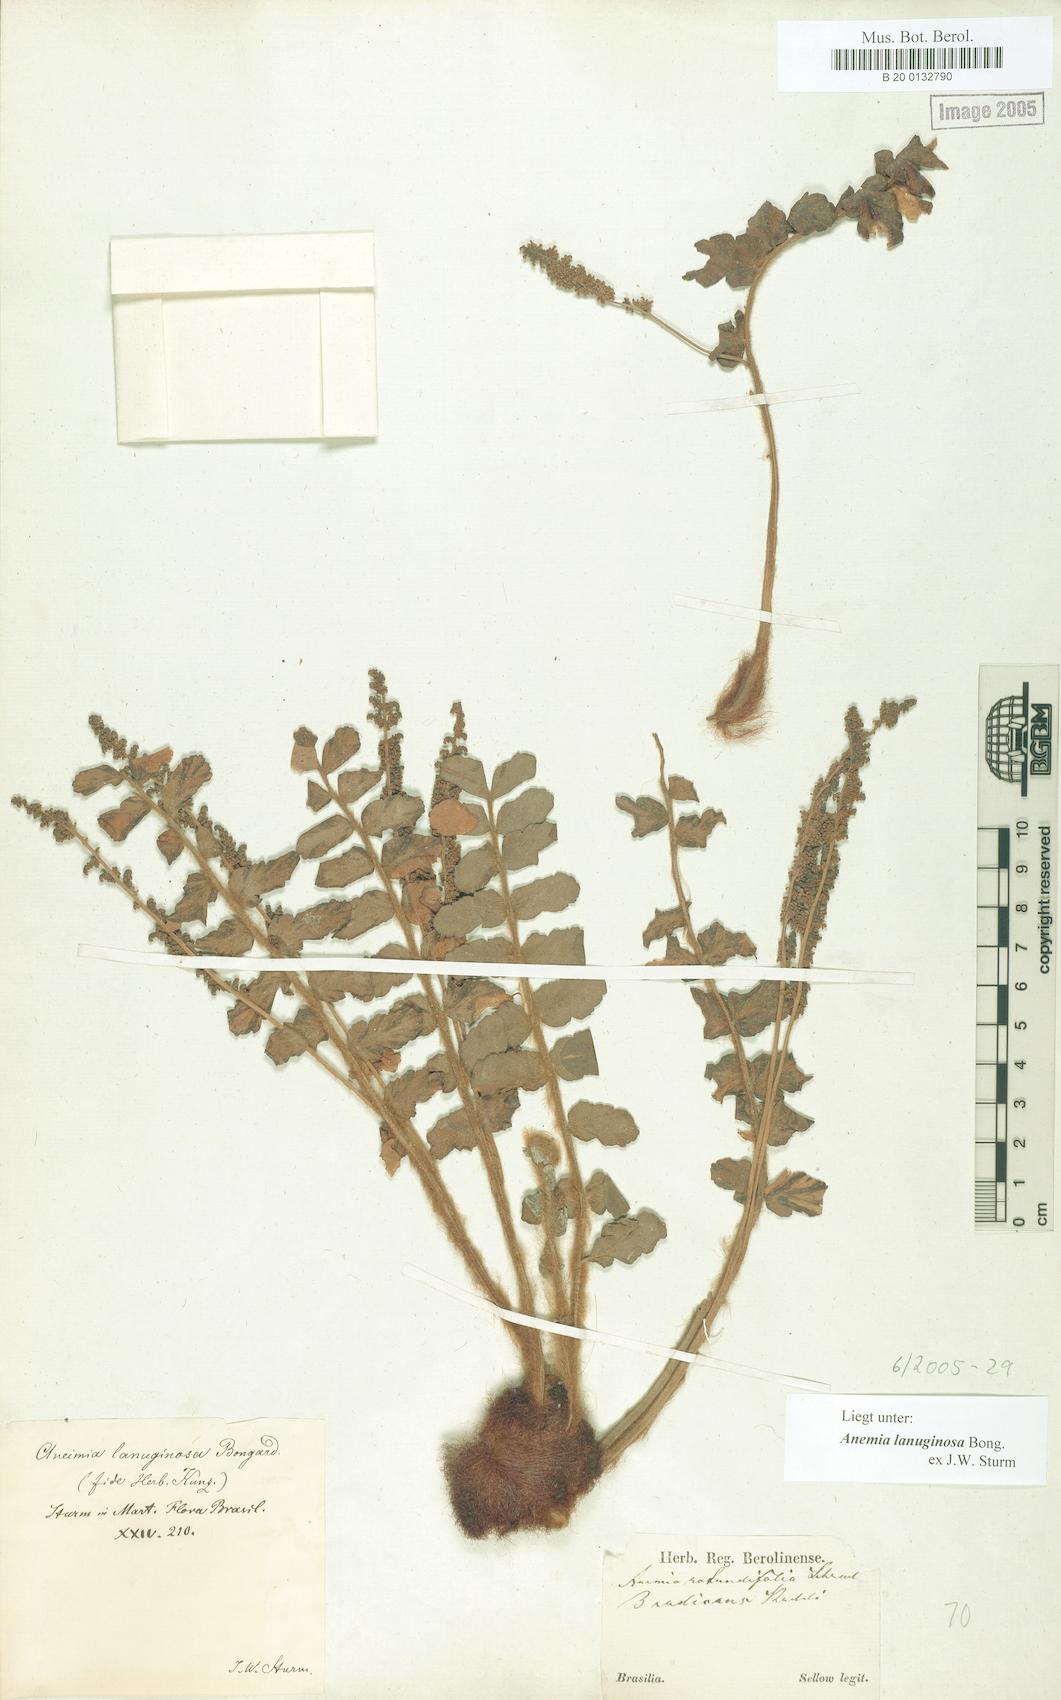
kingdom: Plantae
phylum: Tracheophyta
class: Polypodiopsida
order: Schizaeales
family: Anemiaceae
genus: Anemia
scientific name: Anemia lanuginosa
